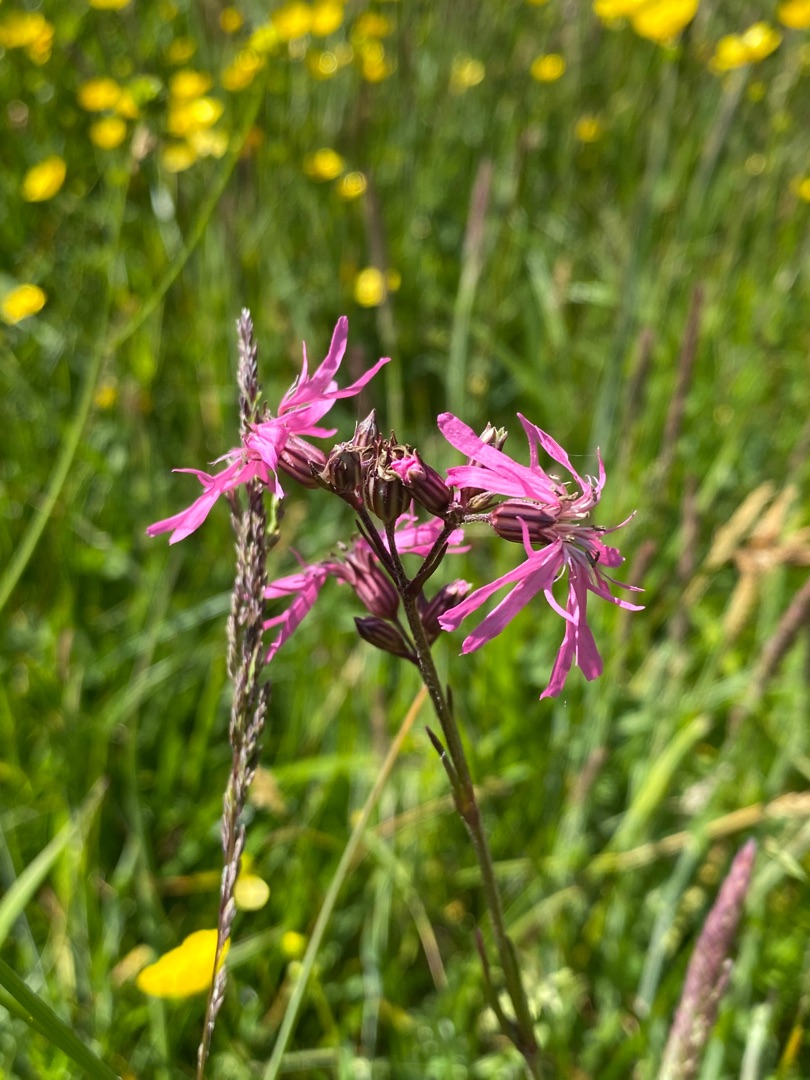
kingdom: Plantae
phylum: Tracheophyta
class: Magnoliopsida
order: Caryophyllales
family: Caryophyllaceae
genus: Silene
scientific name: Silene flos-cuculi
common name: Trævlekrone
